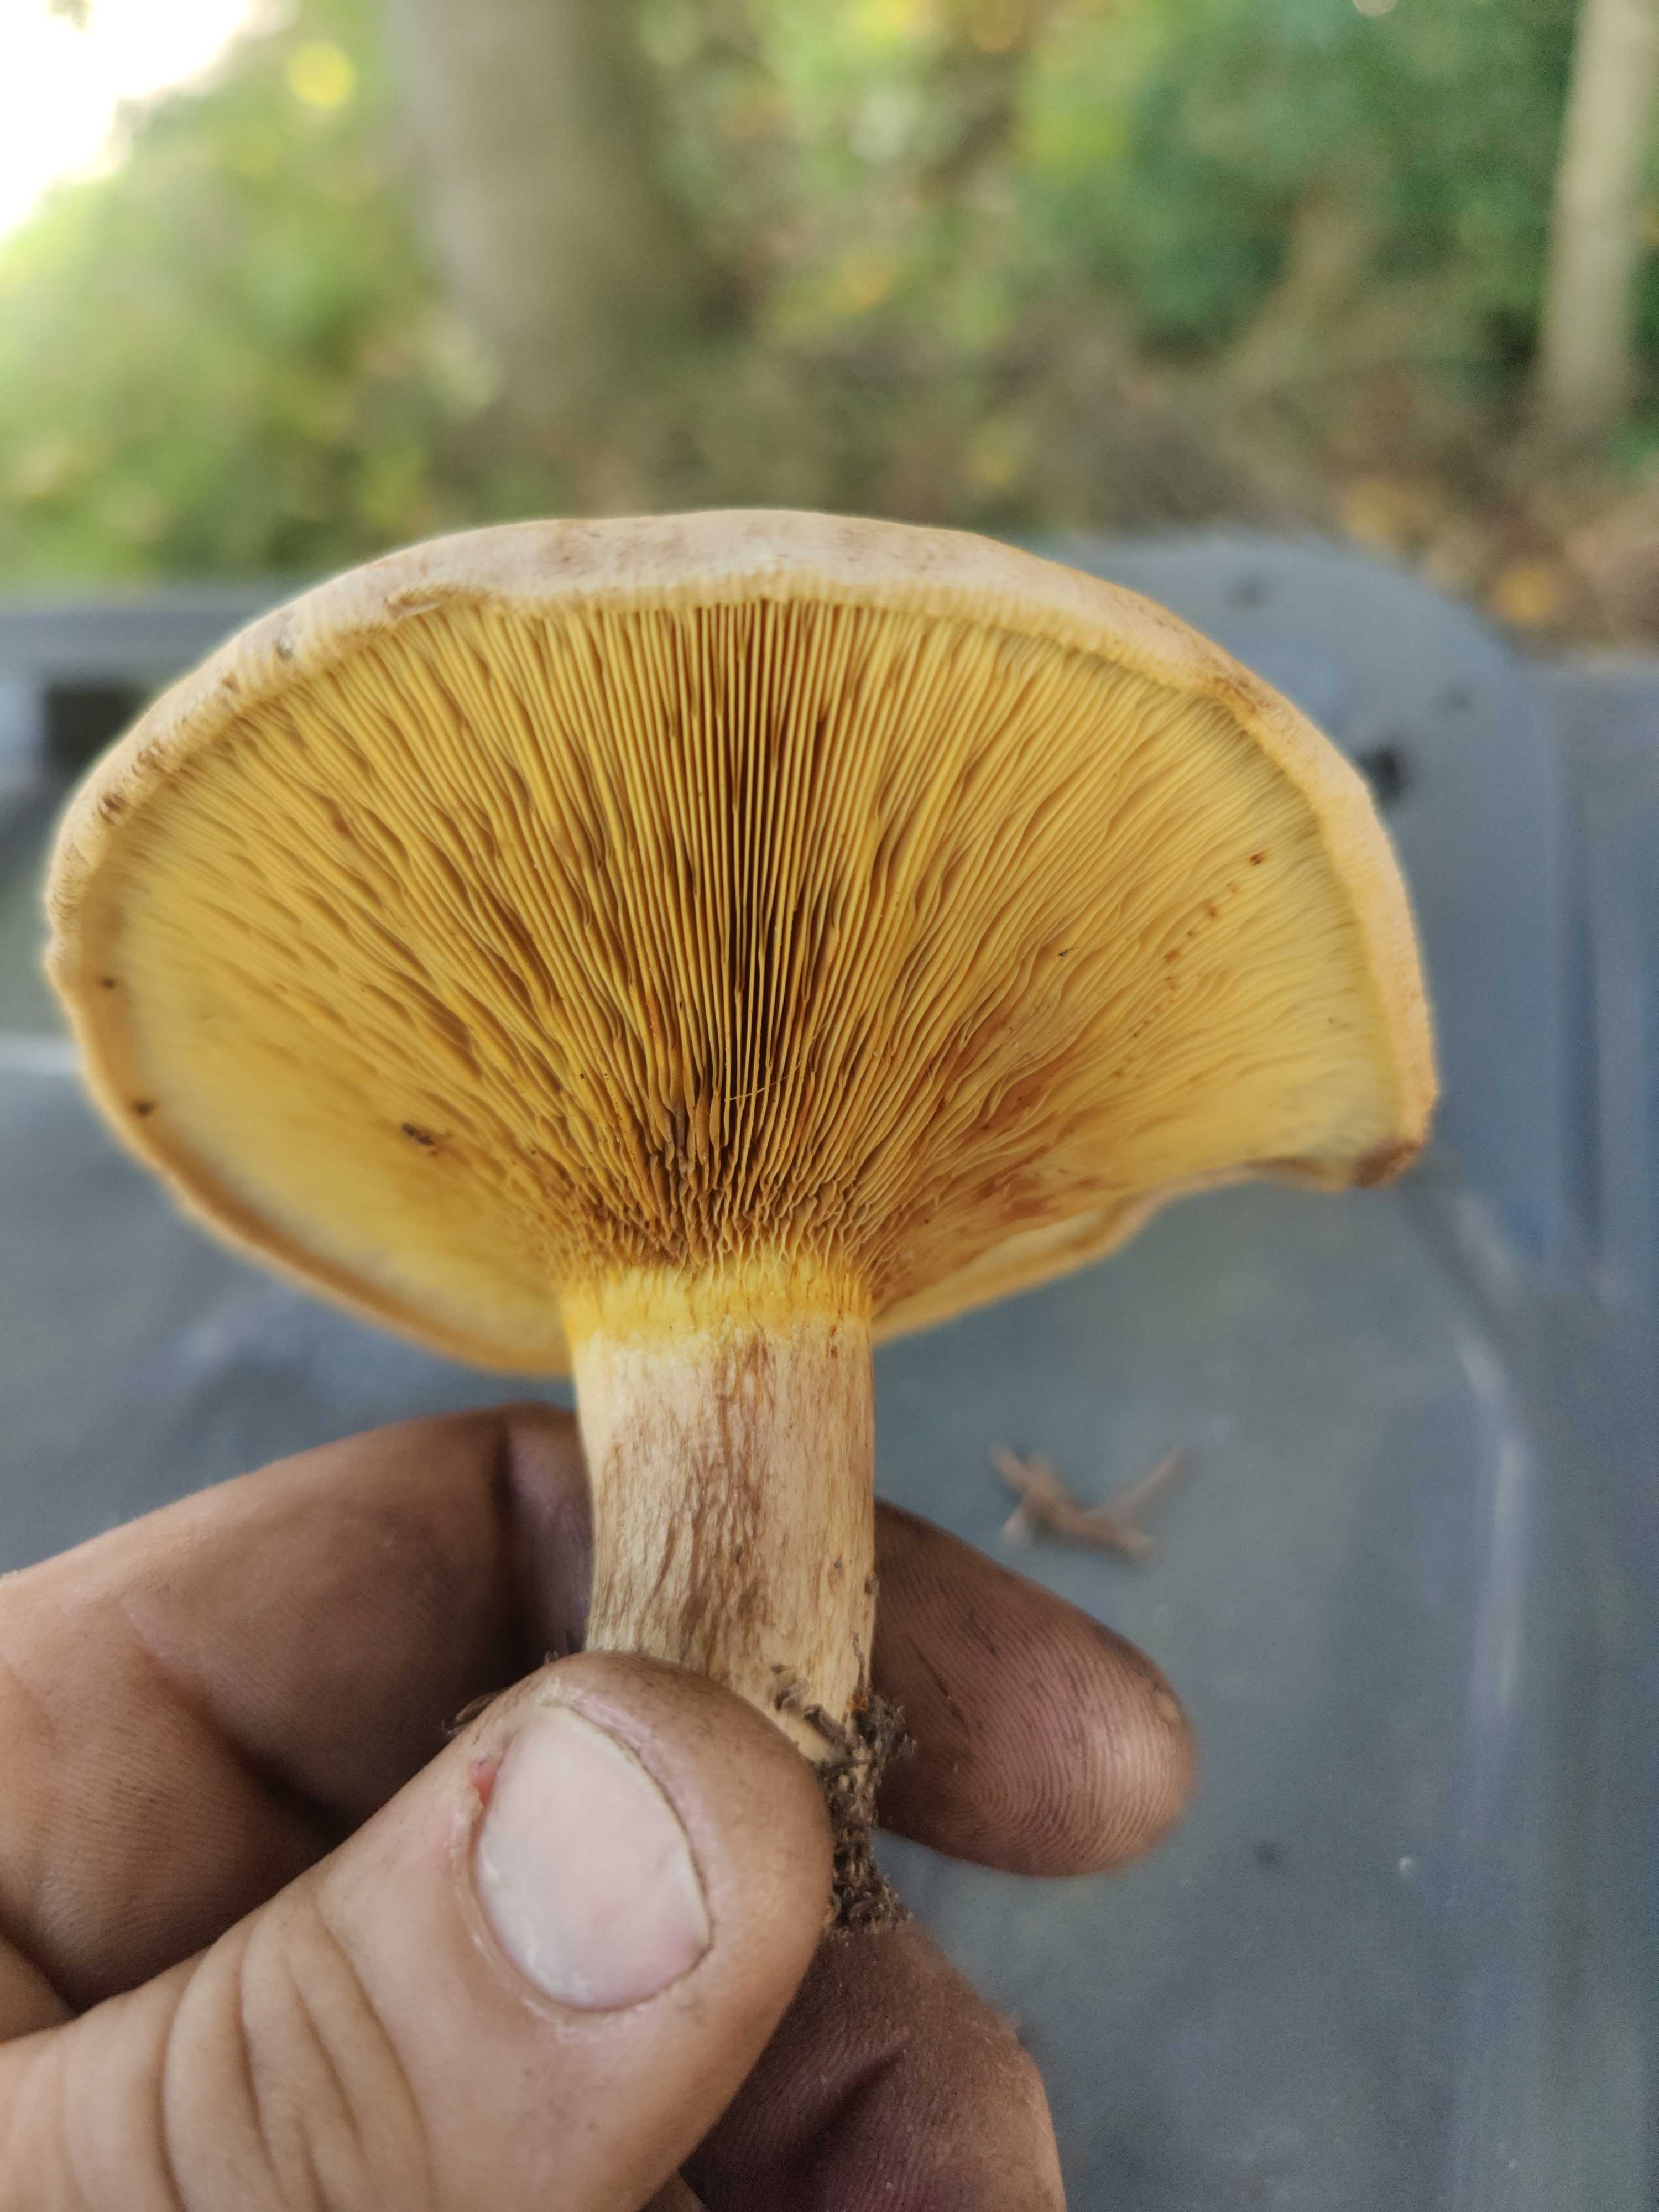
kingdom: Fungi
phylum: Basidiomycota
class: Agaricomycetes
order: Boletales
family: Paxillaceae
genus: Paxillus
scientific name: Paxillus
